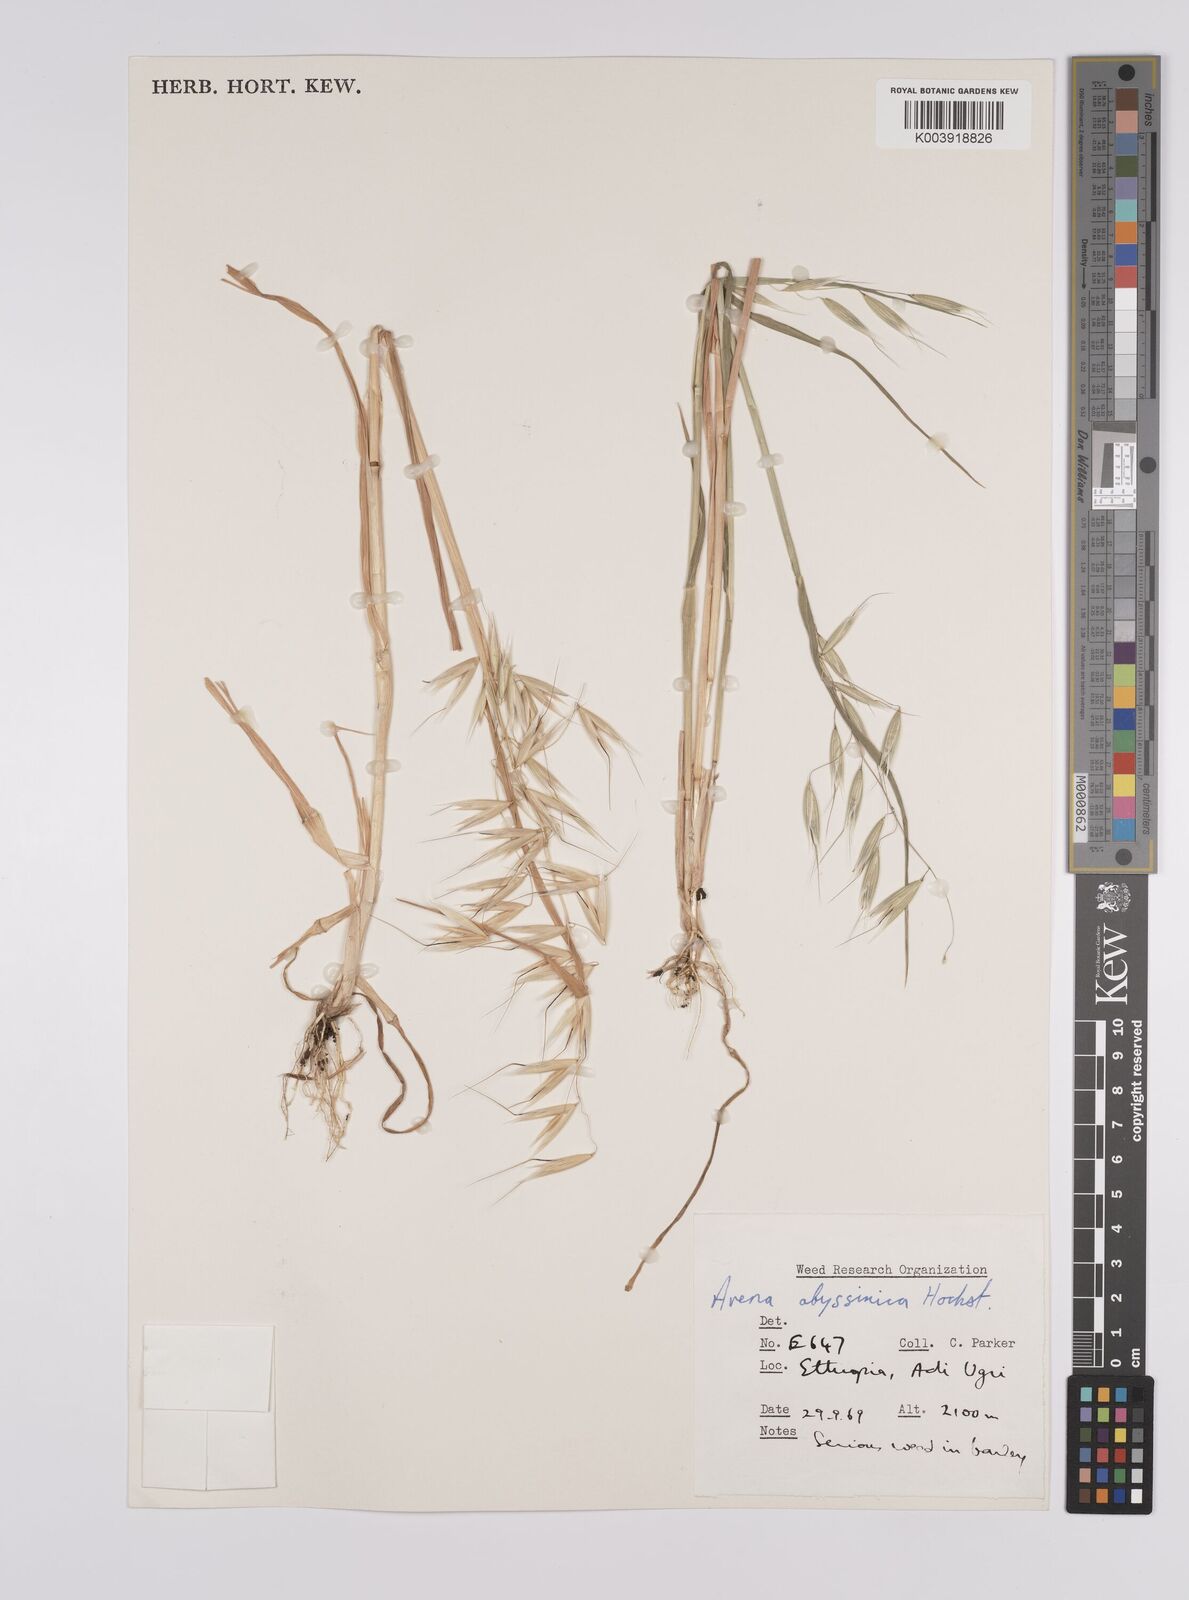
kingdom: Plantae
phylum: Tracheophyta
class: Liliopsida
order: Poales
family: Poaceae
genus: Avena
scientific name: Avena abyssinica
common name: Ethiopian oat
